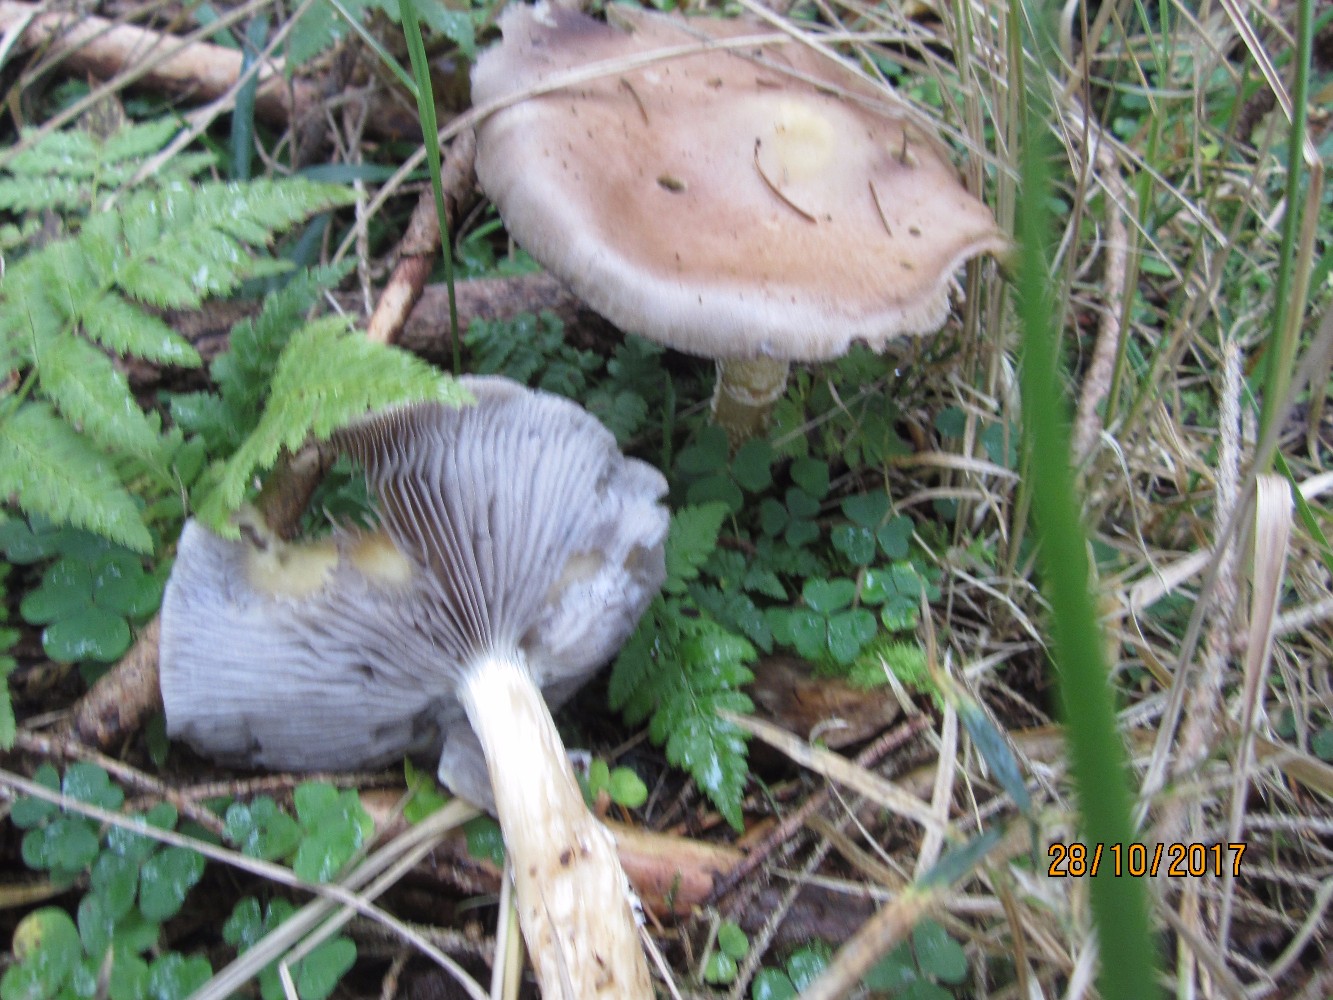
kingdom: Fungi
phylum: Basidiomycota
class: Agaricomycetes
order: Agaricales
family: Strophariaceae
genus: Stropharia
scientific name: Stropharia hornemannii
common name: nordisk bredblad
